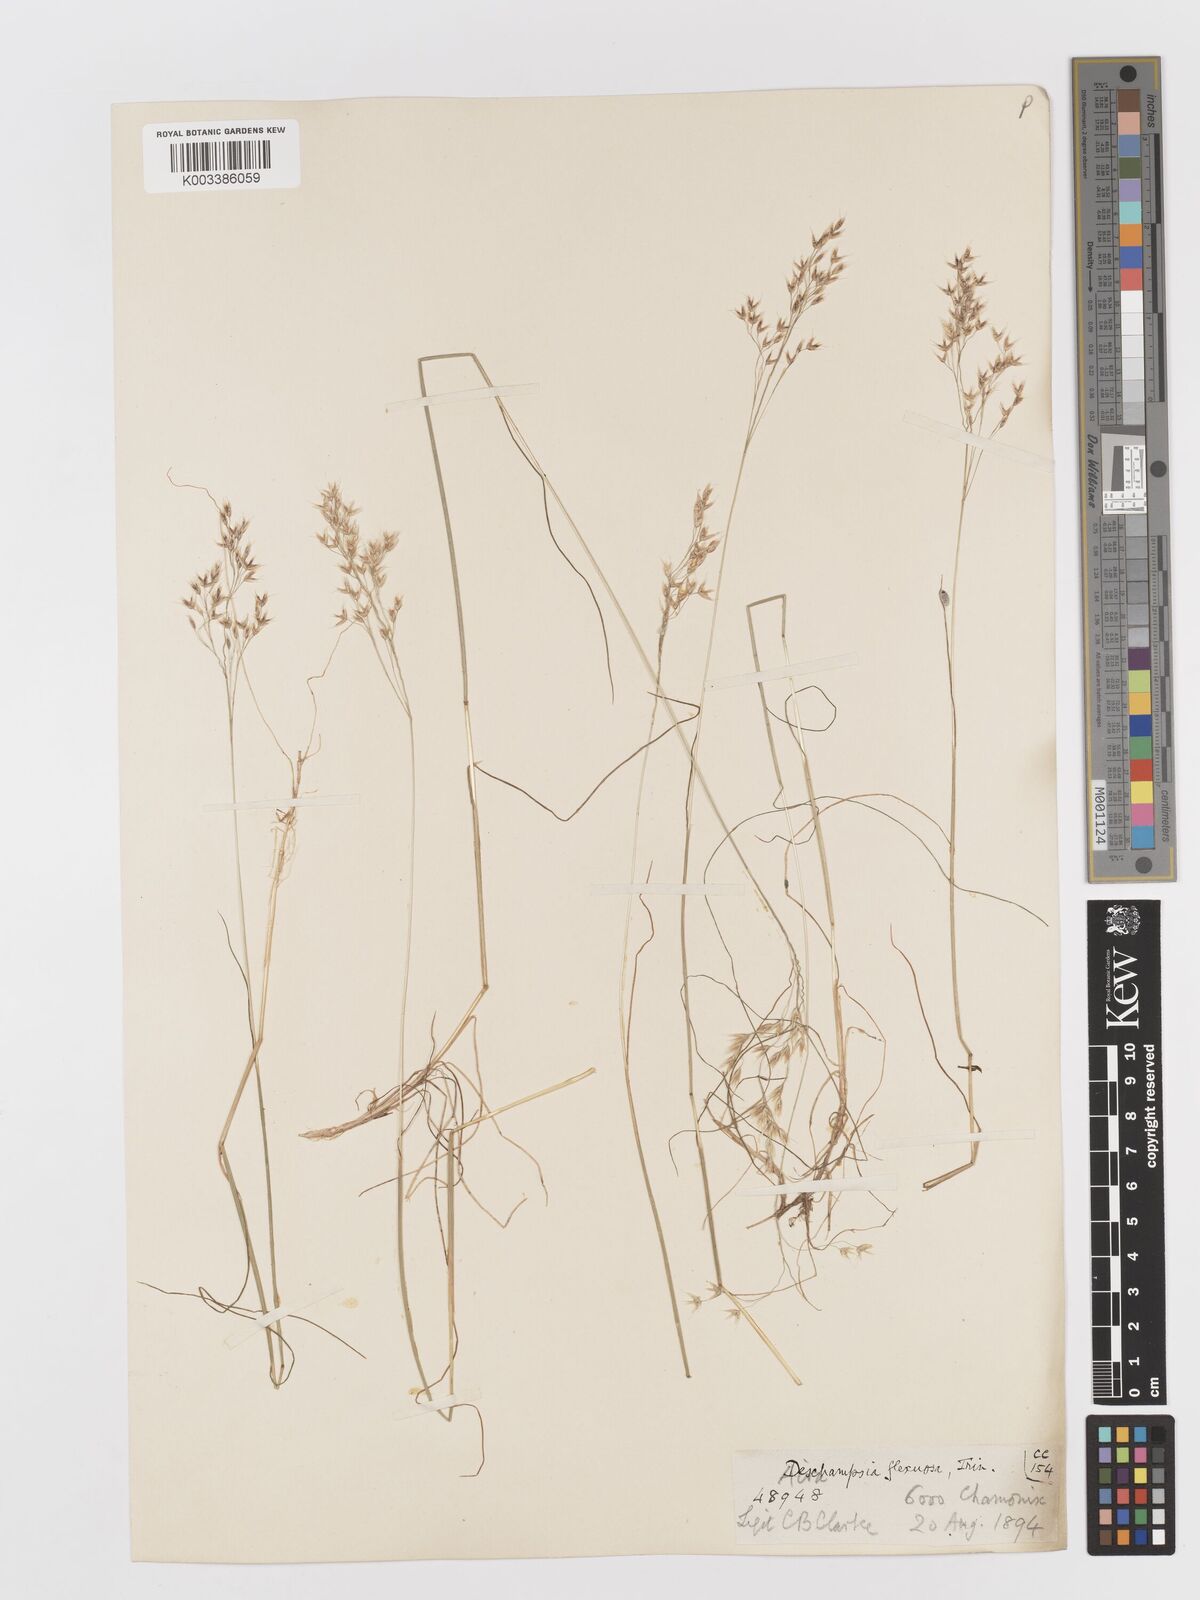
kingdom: Plantae
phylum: Tracheophyta
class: Liliopsida
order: Poales
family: Poaceae
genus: Avenella
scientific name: Avenella flexuosa
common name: Wavy hairgrass
